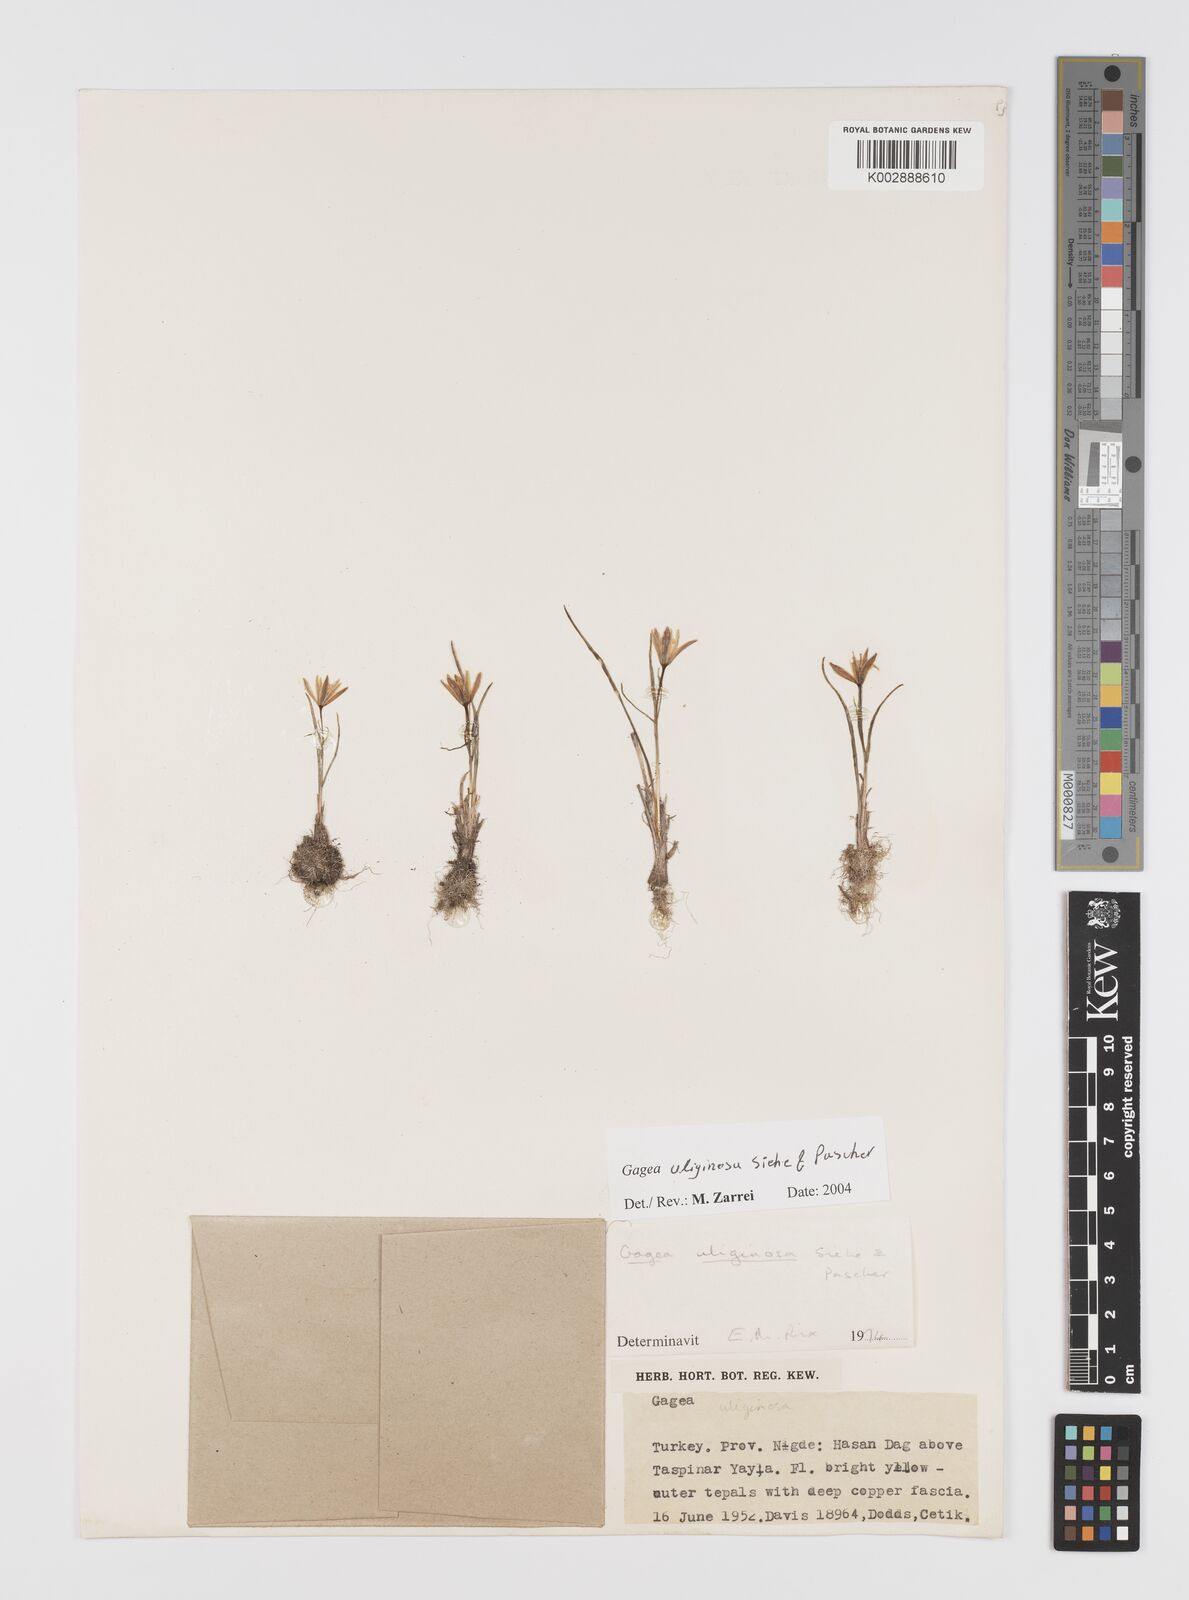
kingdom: Plantae
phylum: Tracheophyta
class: Liliopsida
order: Liliales
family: Liliaceae
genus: Gagea
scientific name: Gagea uliginosa
